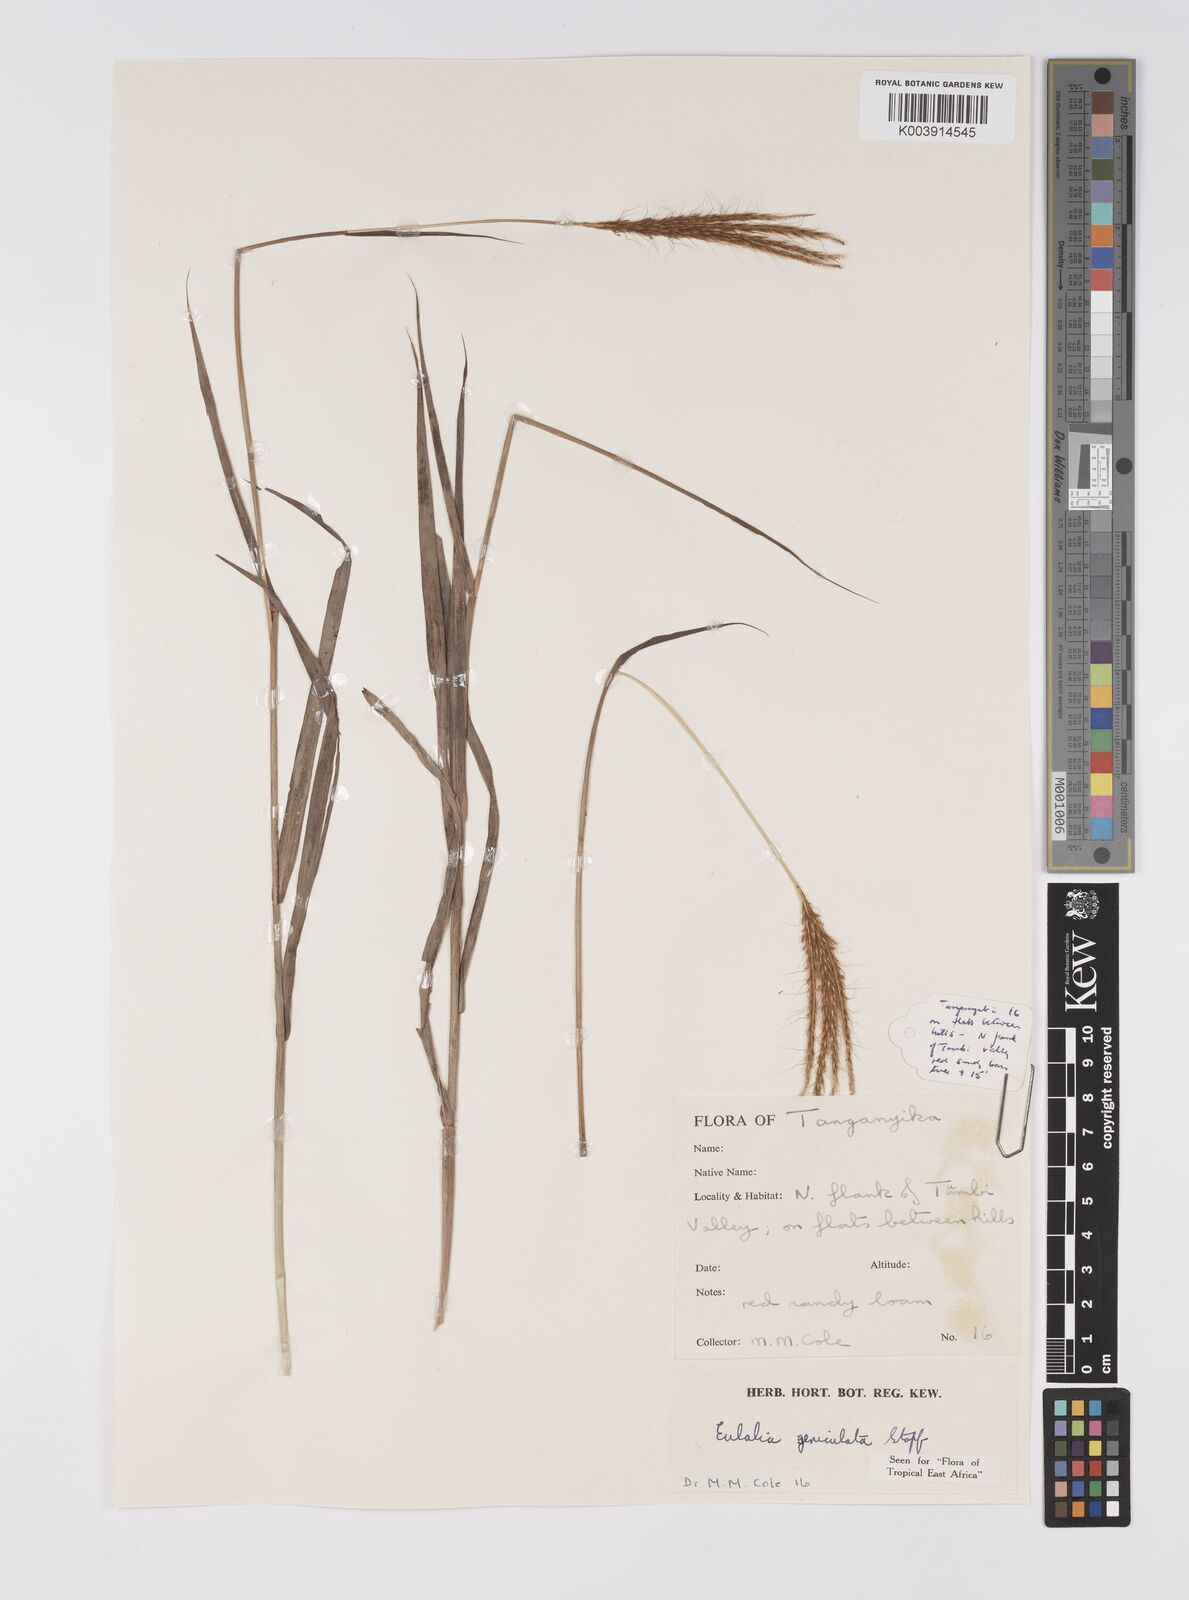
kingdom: Plantae
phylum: Tracheophyta
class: Liliopsida
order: Poales
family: Poaceae
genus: Eulalia
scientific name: Eulalia aurea
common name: Silky browntop
